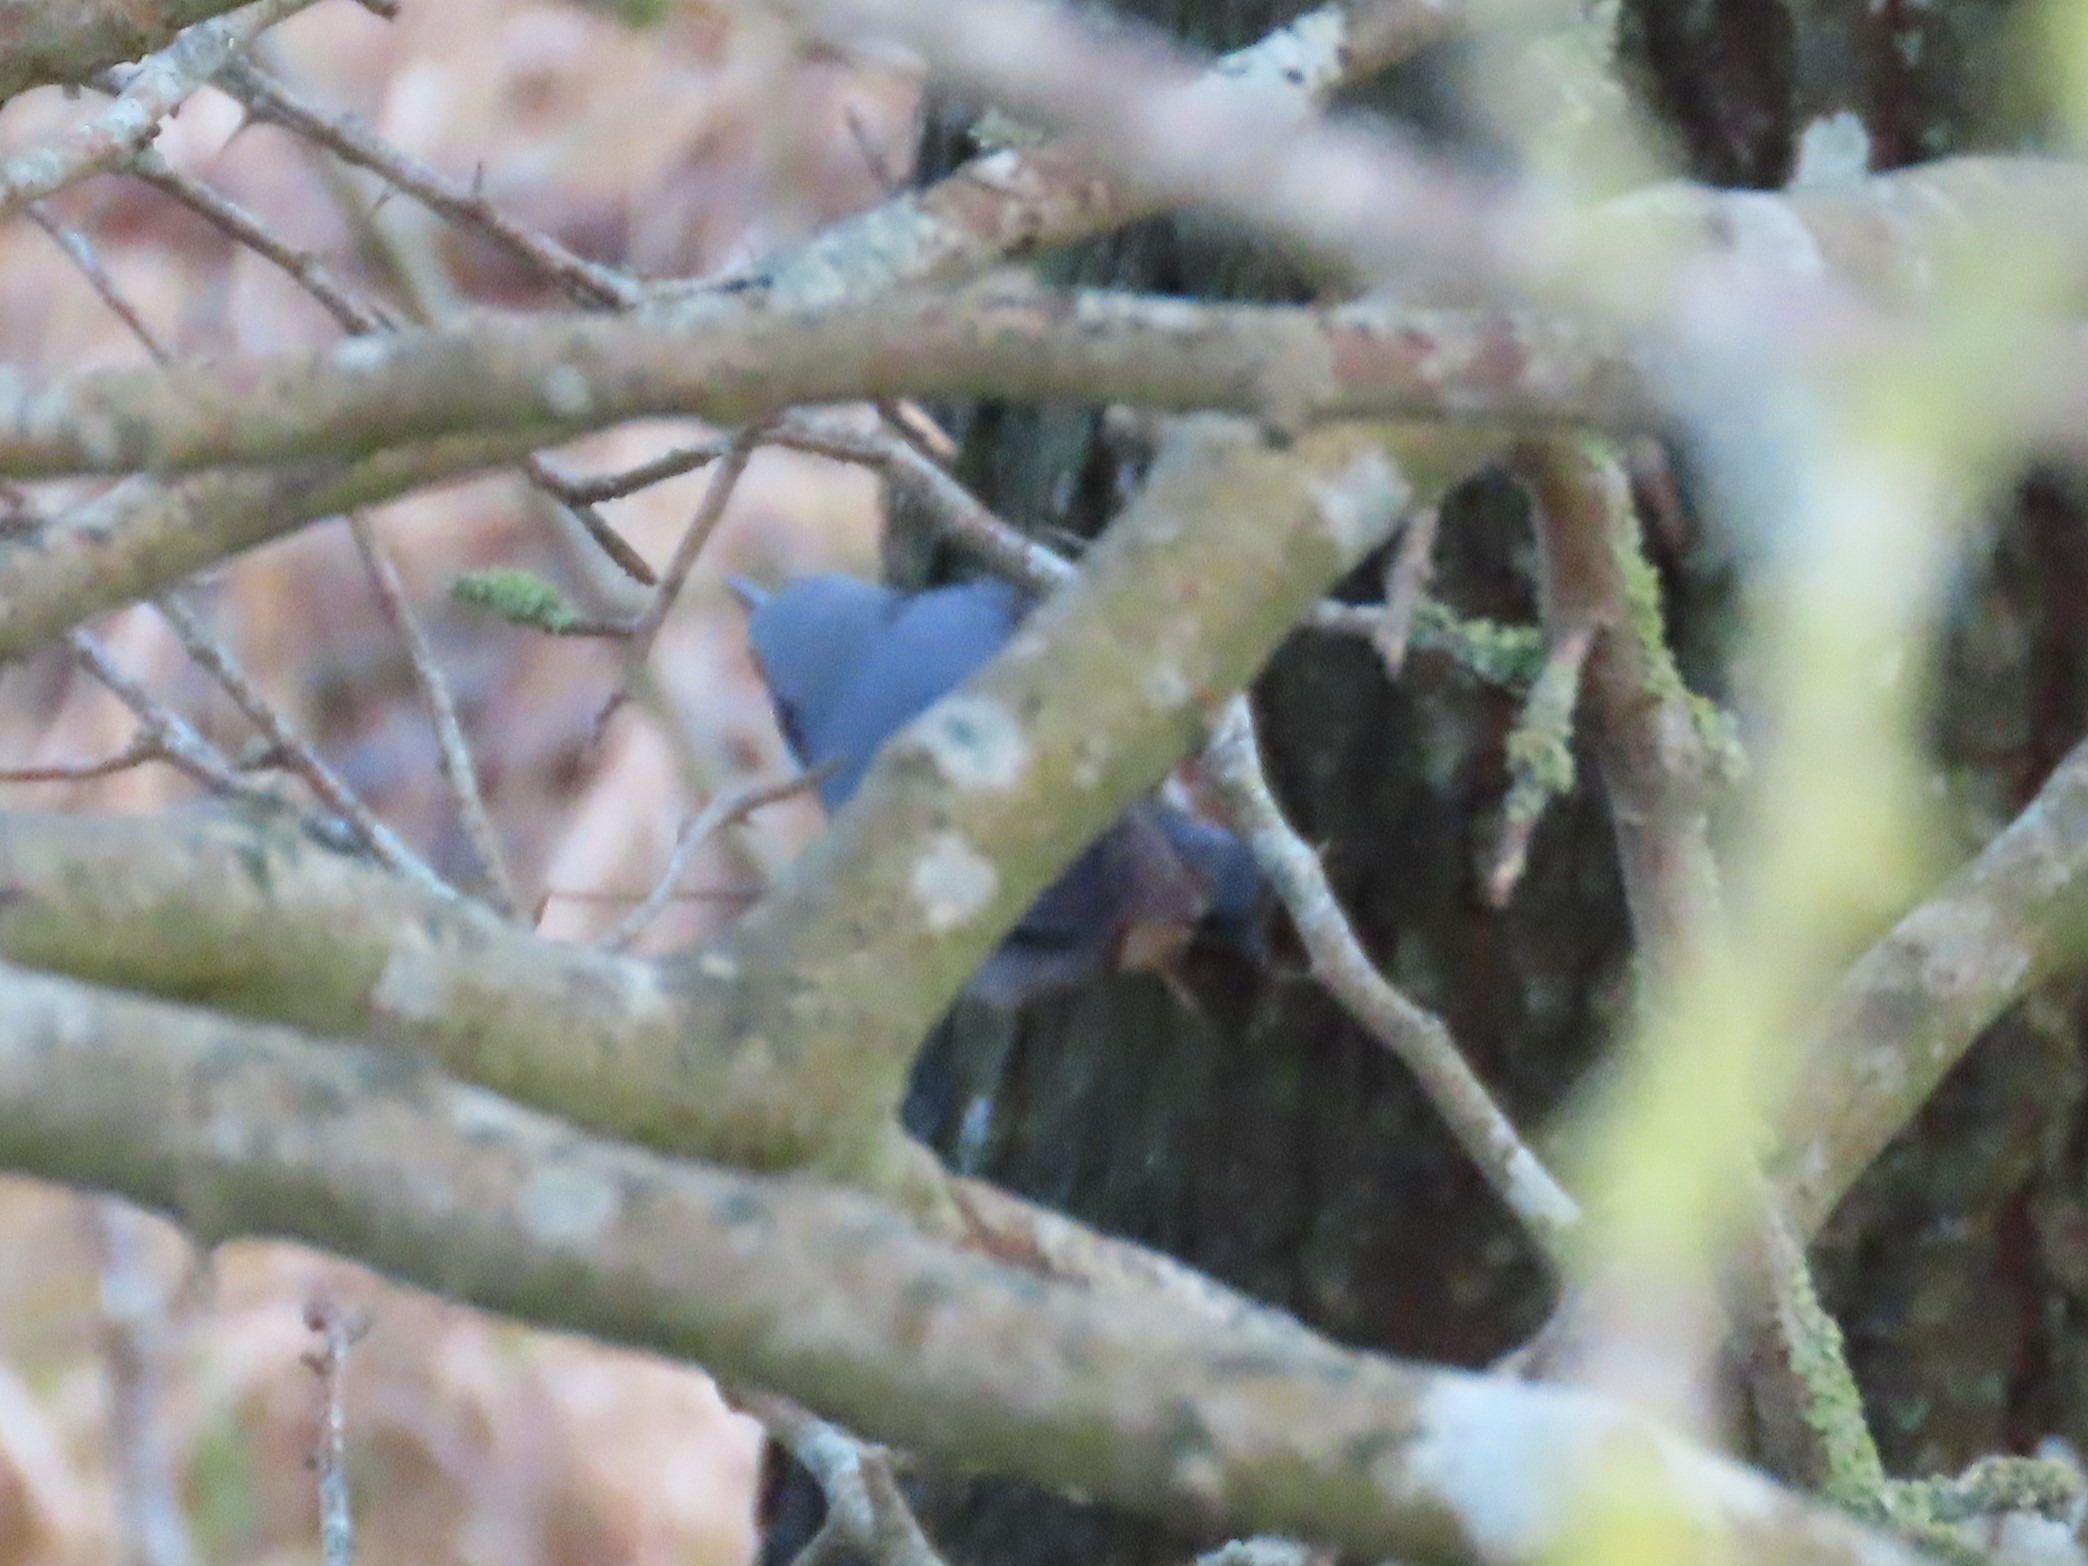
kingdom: Animalia
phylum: Chordata
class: Aves
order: Passeriformes
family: Sittidae
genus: Sitta
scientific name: Sitta europaea
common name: Spætmejse
